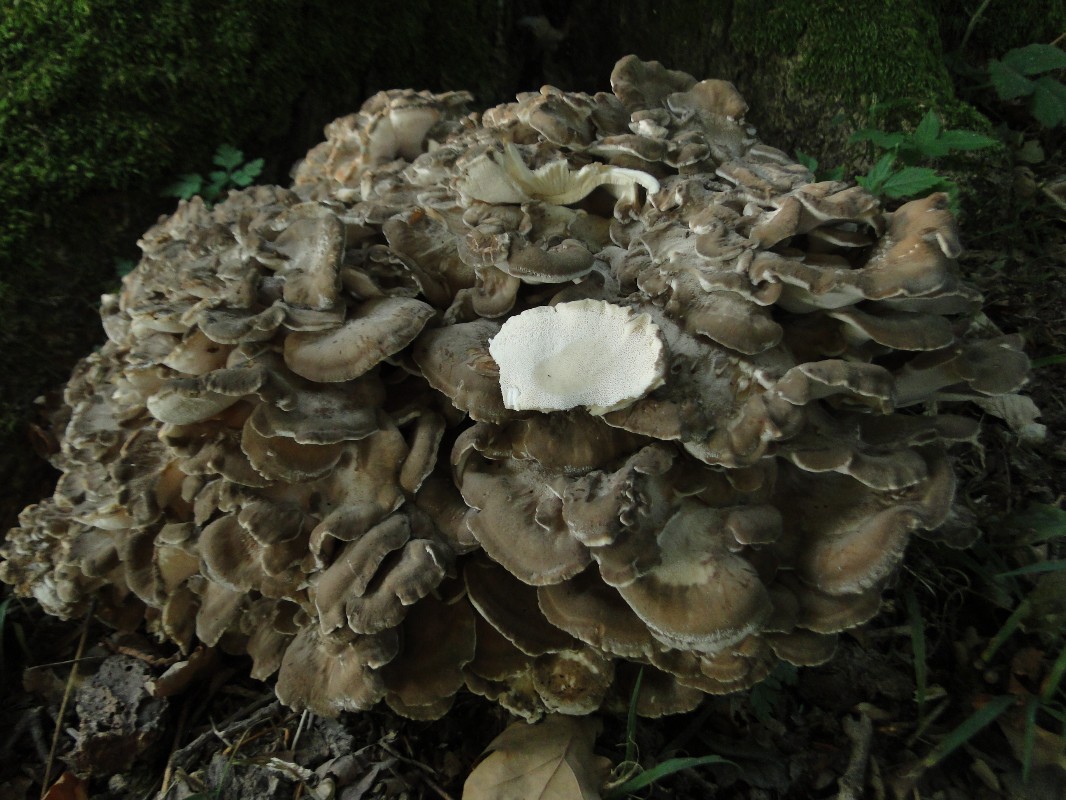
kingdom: Fungi
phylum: Basidiomycota
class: Agaricomycetes
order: Polyporales
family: Grifolaceae
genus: Grifola
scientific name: Grifola frondosa
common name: tueporesvamp
